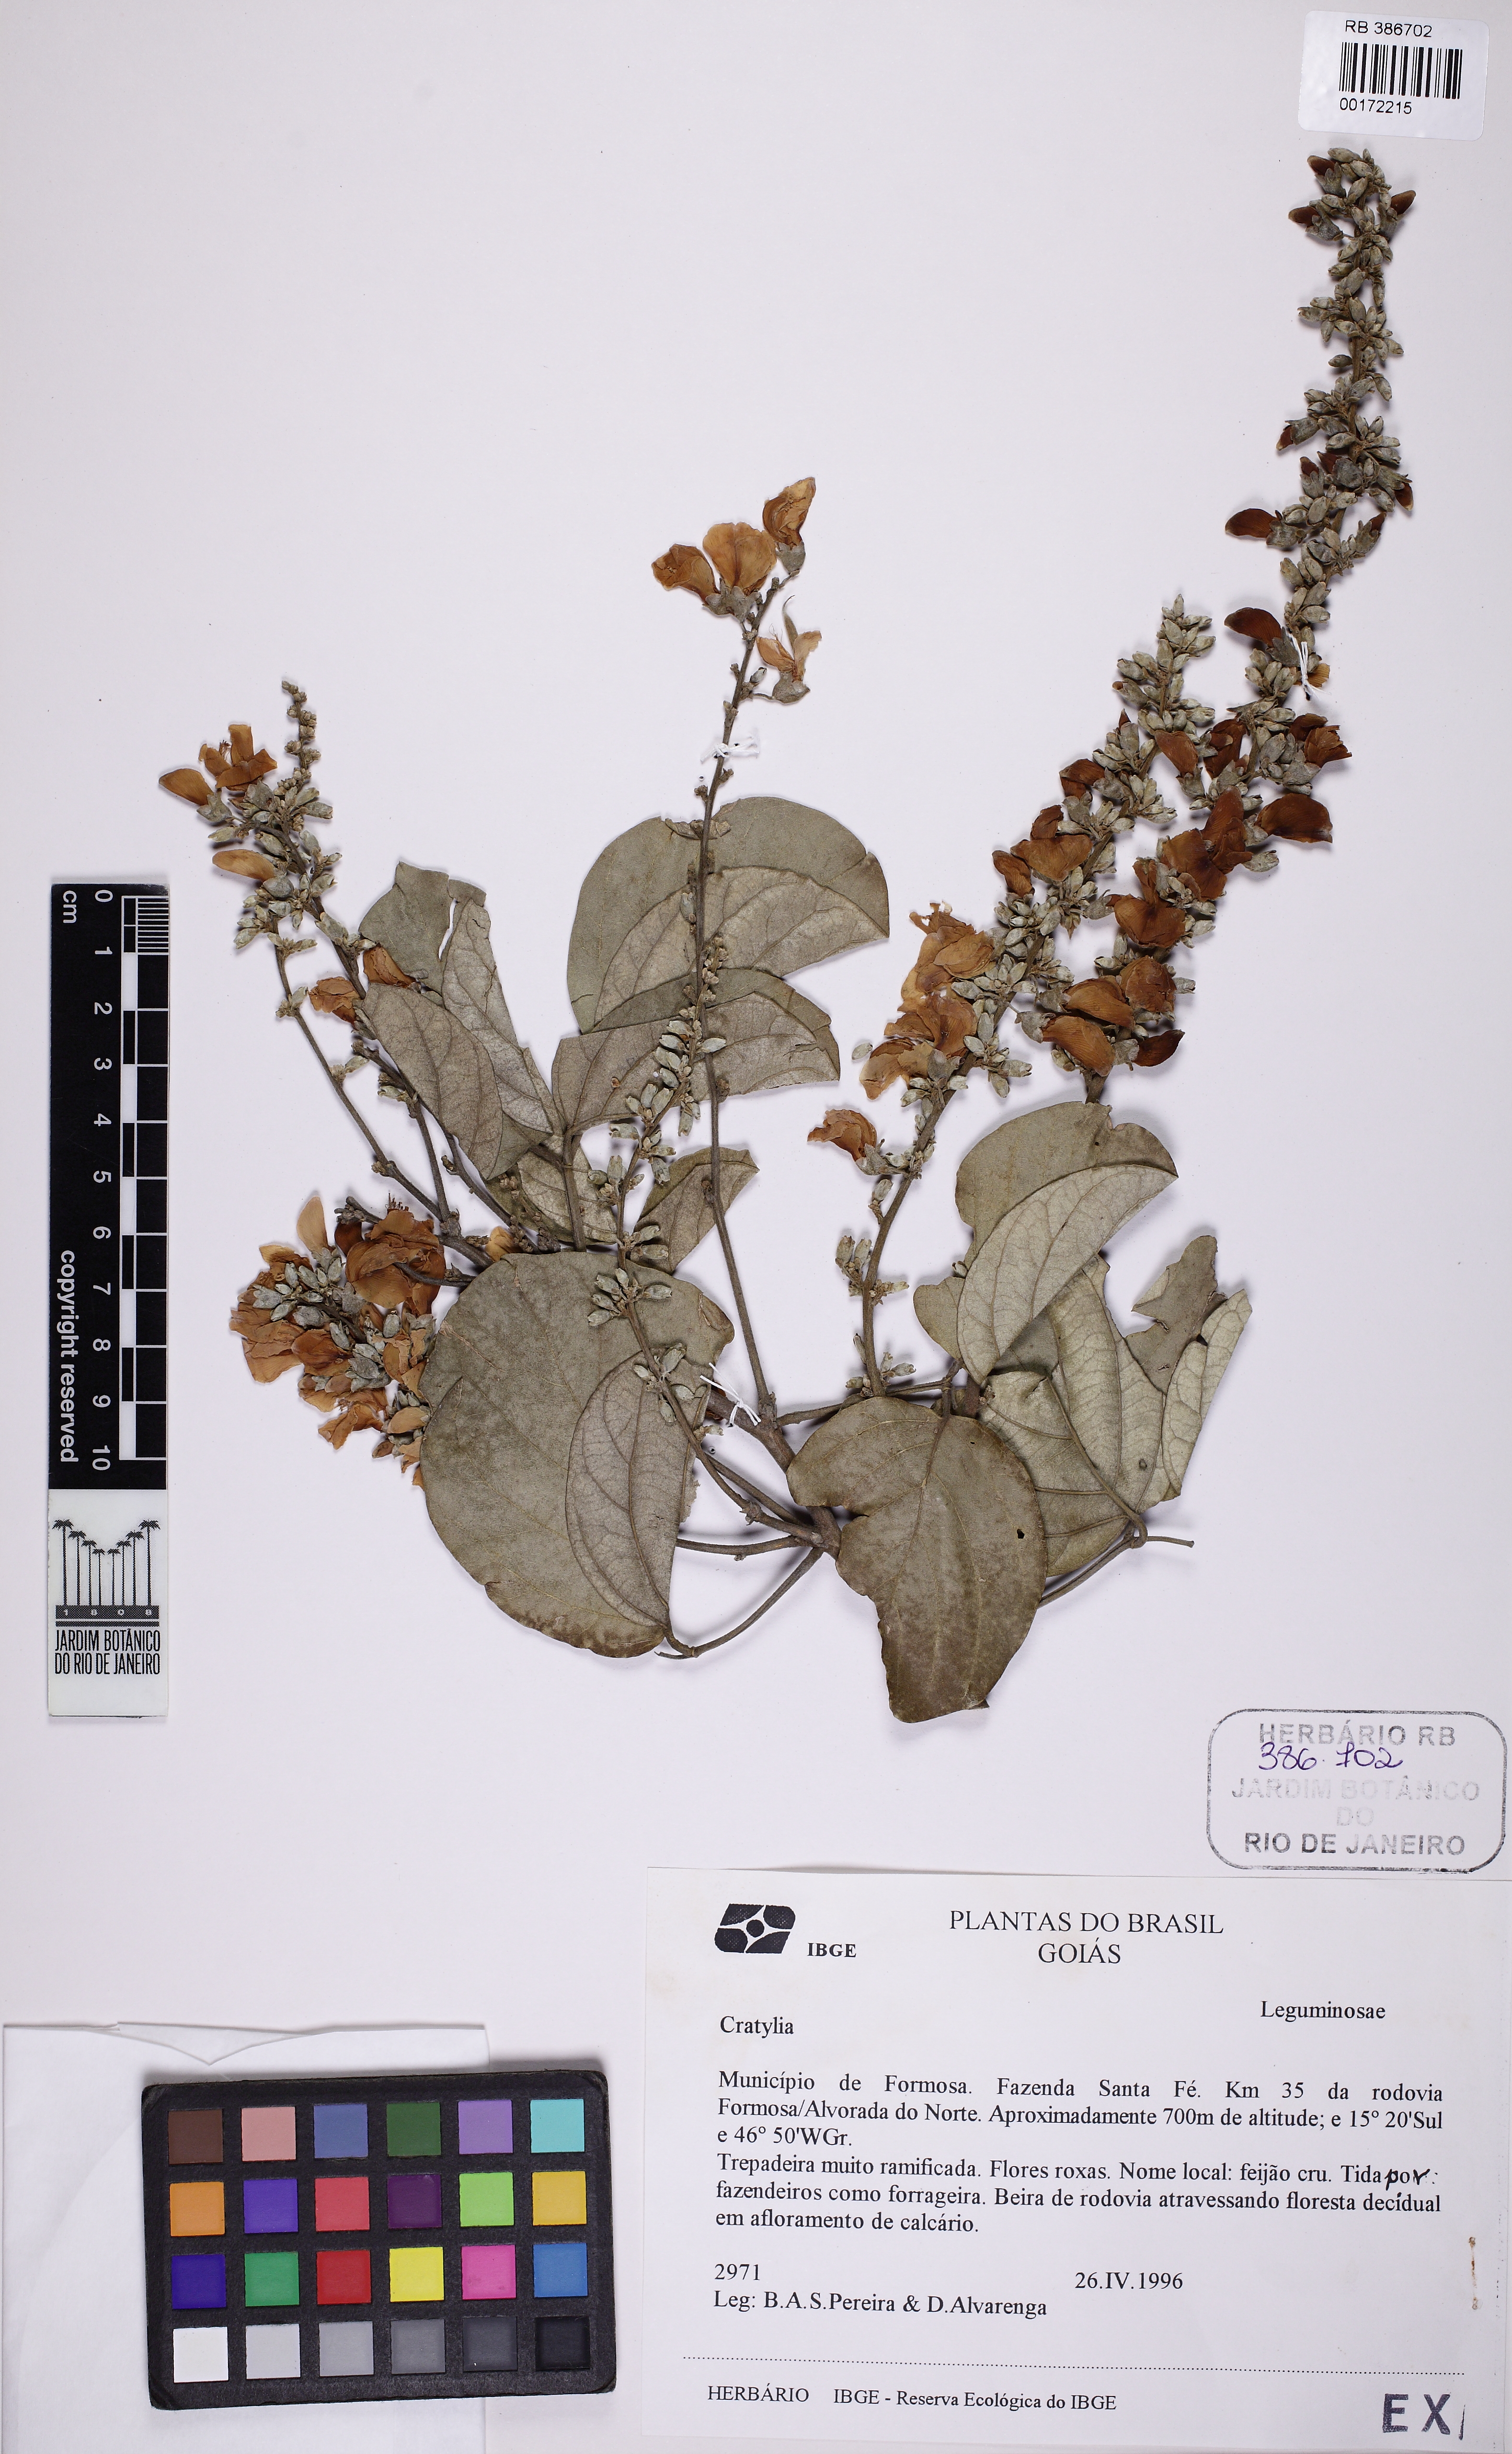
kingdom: Plantae
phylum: Tracheophyta
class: Magnoliopsida
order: Fabales
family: Fabaceae
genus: Cratylia
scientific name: Cratylia
